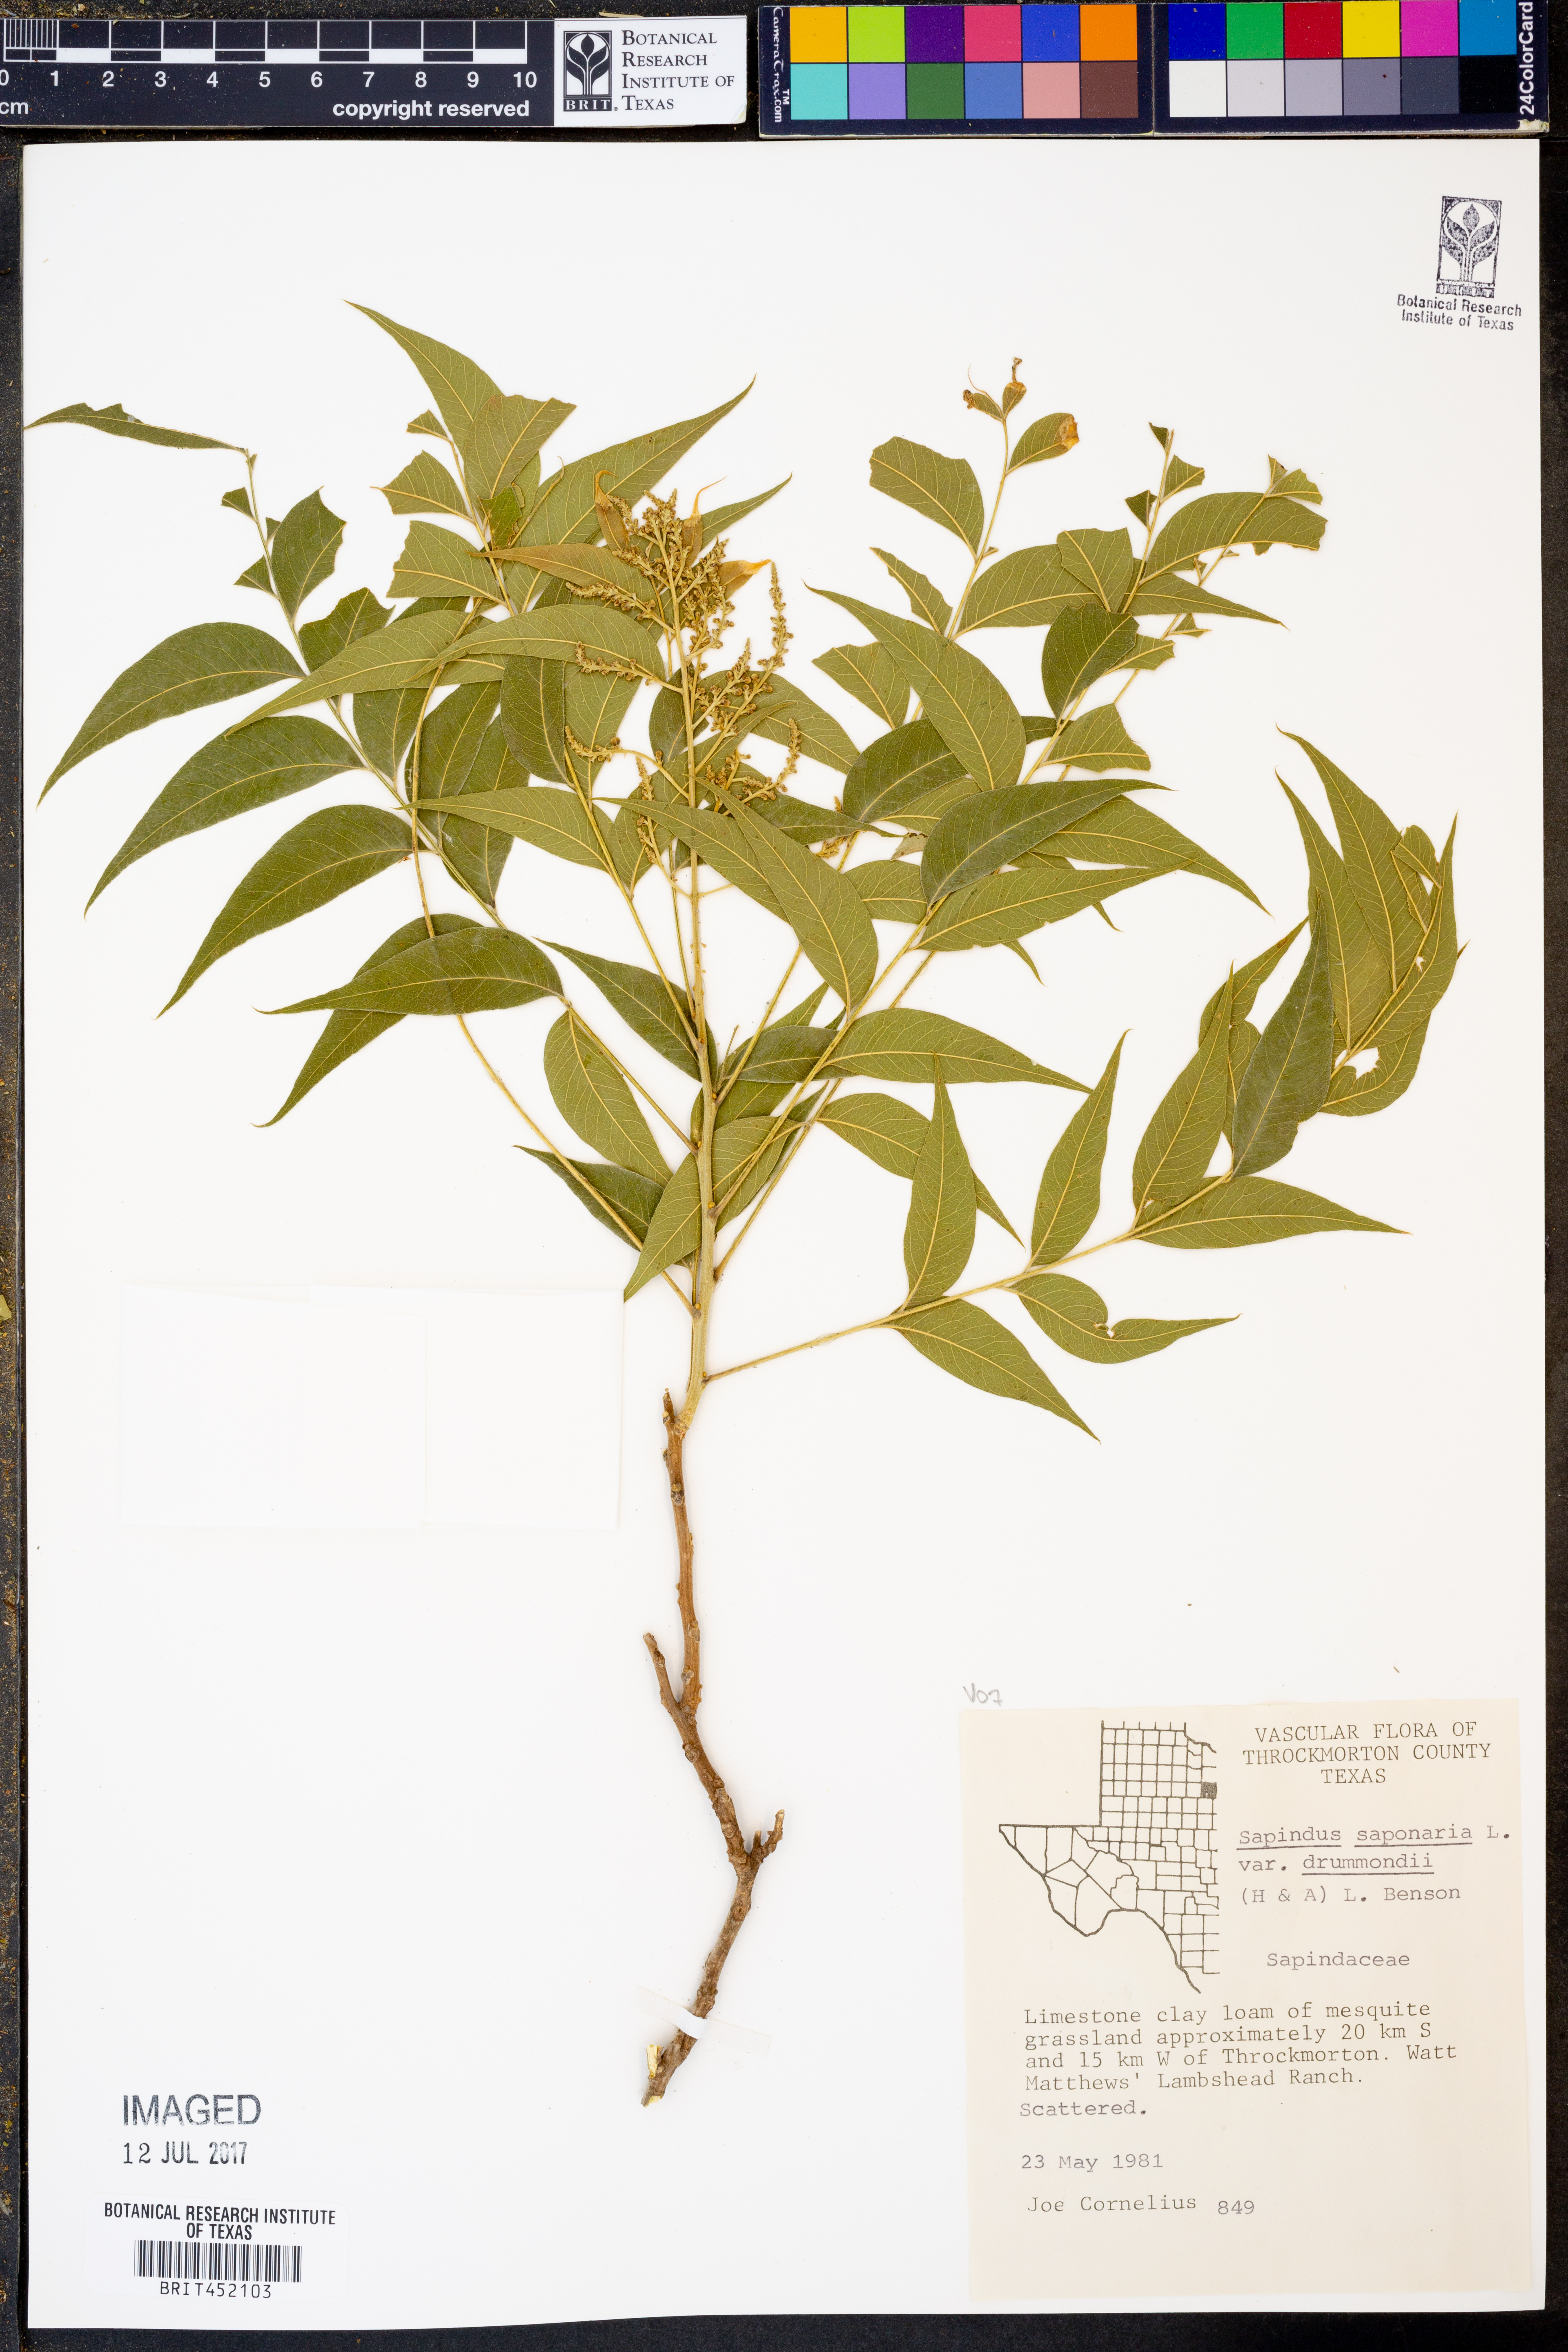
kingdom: Plantae
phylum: Tracheophyta
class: Magnoliopsida
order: Sapindales
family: Sapindaceae
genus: Sapindus
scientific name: Sapindus drummondii
